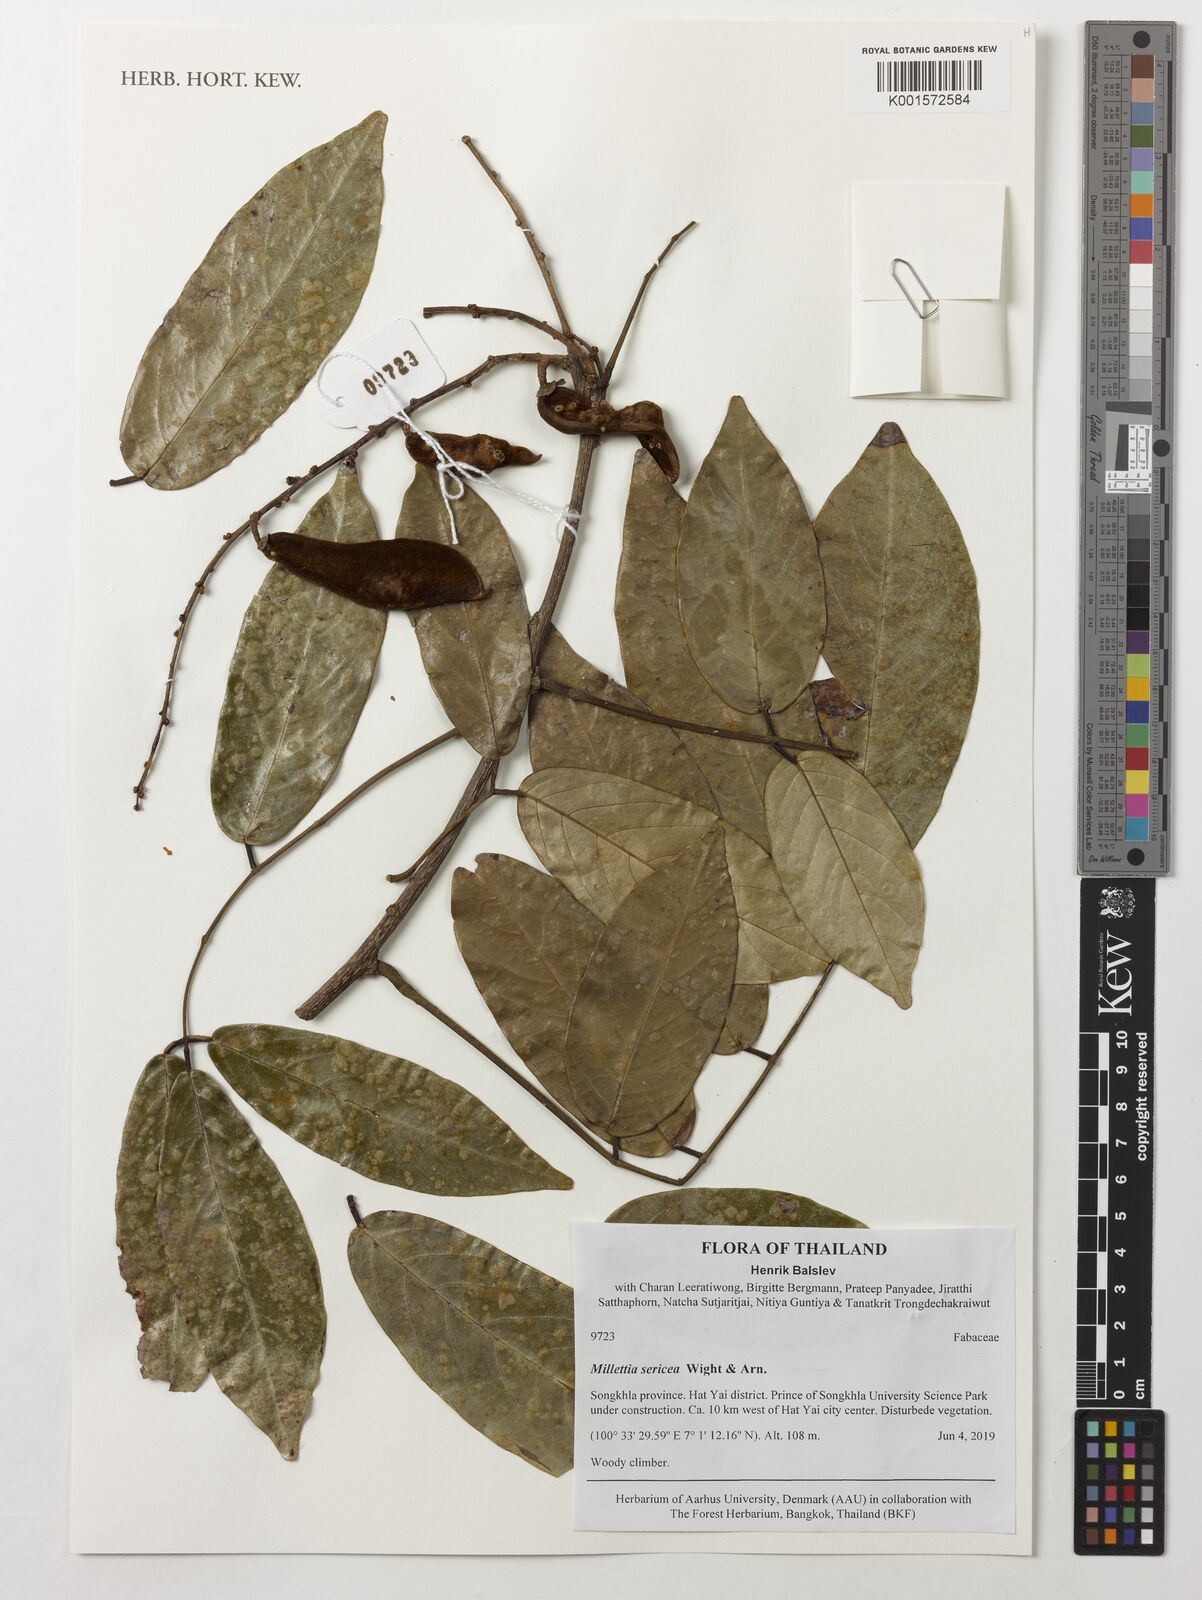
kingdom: Plantae
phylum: Tracheophyta
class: Magnoliopsida
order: Fabales
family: Fabaceae
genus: Millettia
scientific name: Millettia sericea
